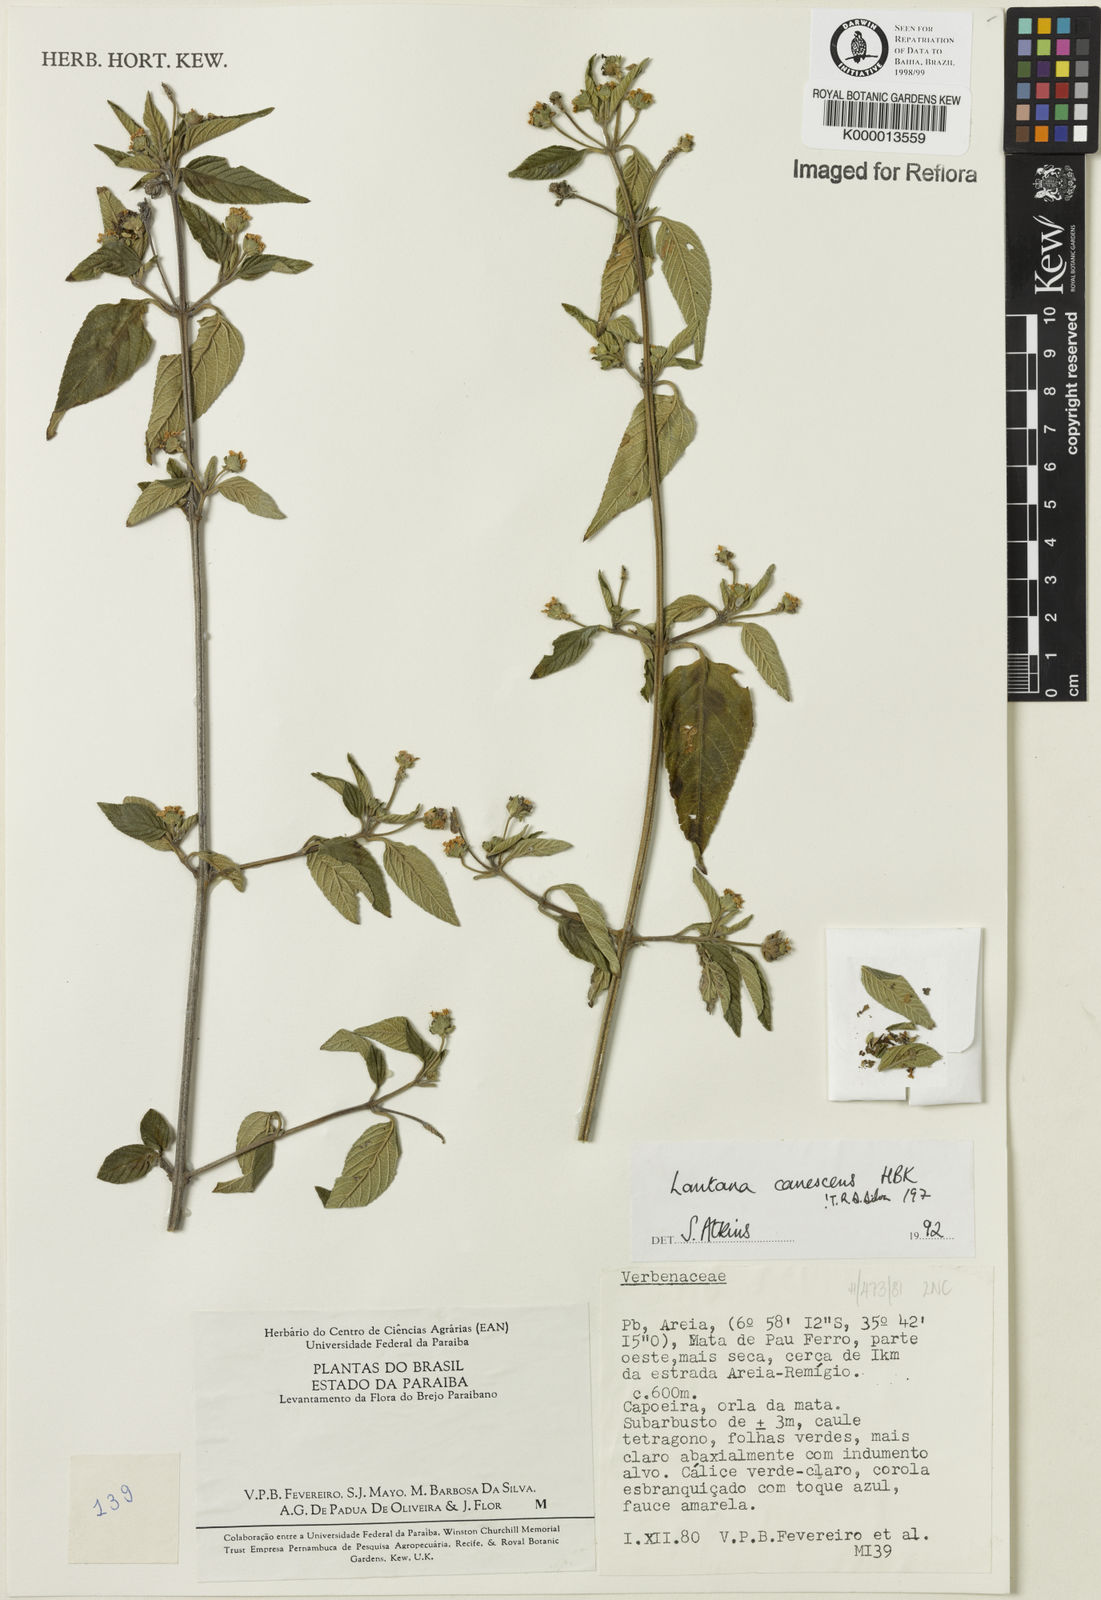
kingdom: Plantae
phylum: Tracheophyta
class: Magnoliopsida
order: Lamiales
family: Verbenaceae
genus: Lantana
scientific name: Lantana canescens
